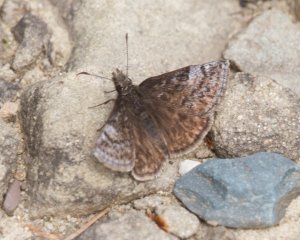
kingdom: Animalia
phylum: Arthropoda
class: Insecta
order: Lepidoptera
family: Hesperiidae
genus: Erynnis
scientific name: Erynnis icelus
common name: Dreamy Duskywing
